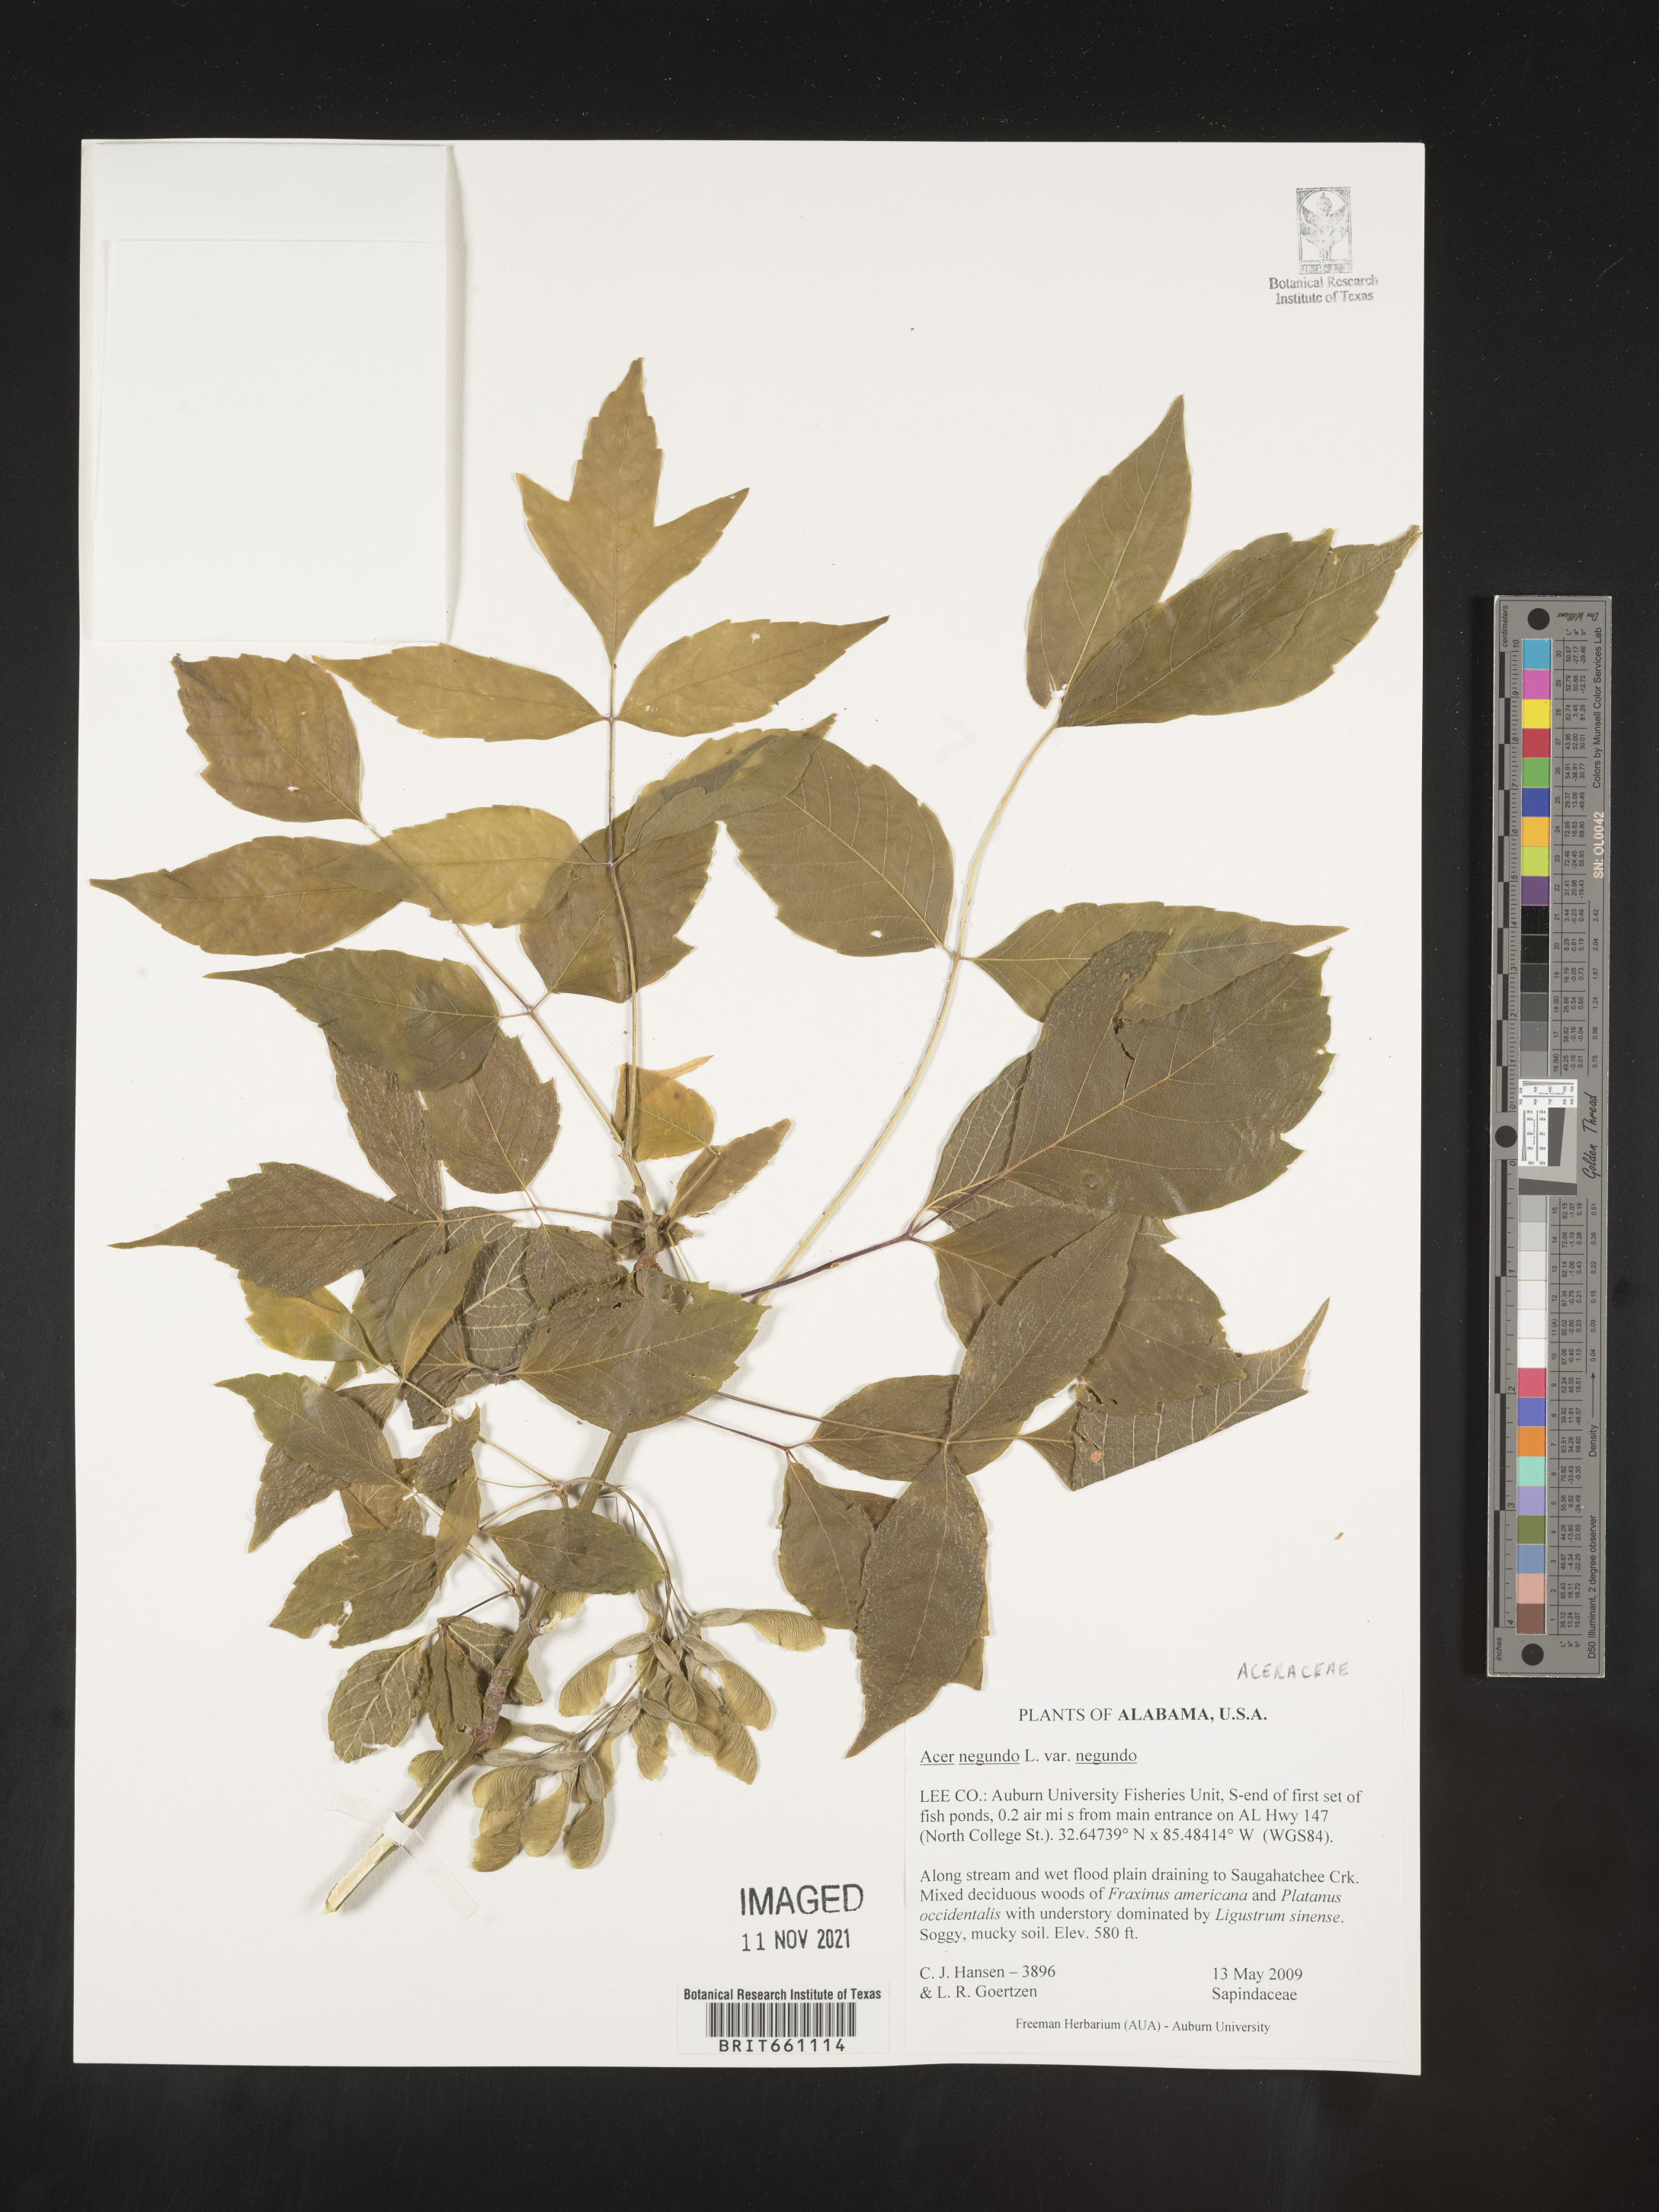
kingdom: Plantae
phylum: Tracheophyta
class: Magnoliopsida
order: Sapindales
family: Sapindaceae
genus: Acer
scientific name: Acer negundo
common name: Ashleaf maple
